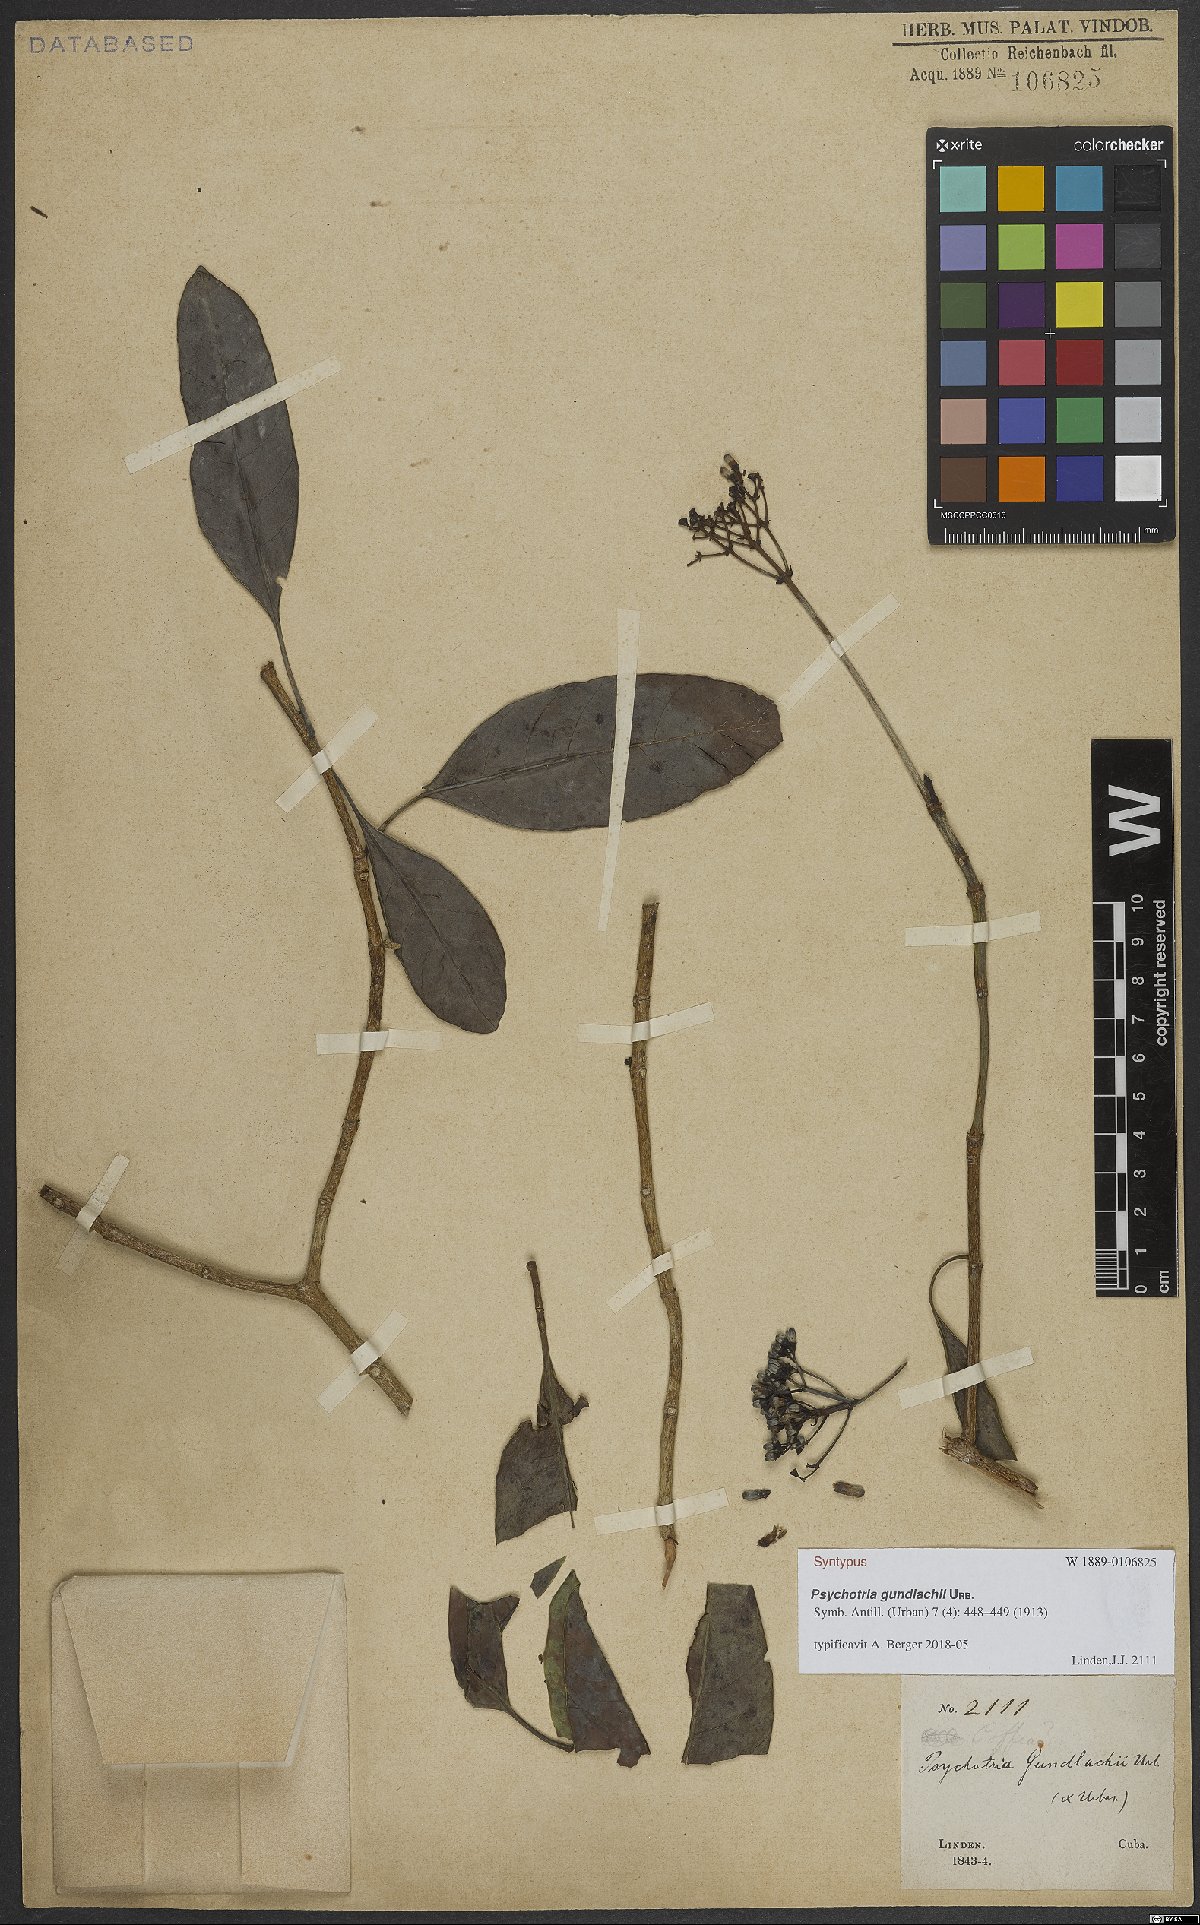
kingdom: Plantae
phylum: Tracheophyta
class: Magnoliopsida
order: Gentianales
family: Rubiaceae
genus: Psychotria
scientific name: Psychotria gundlachii
